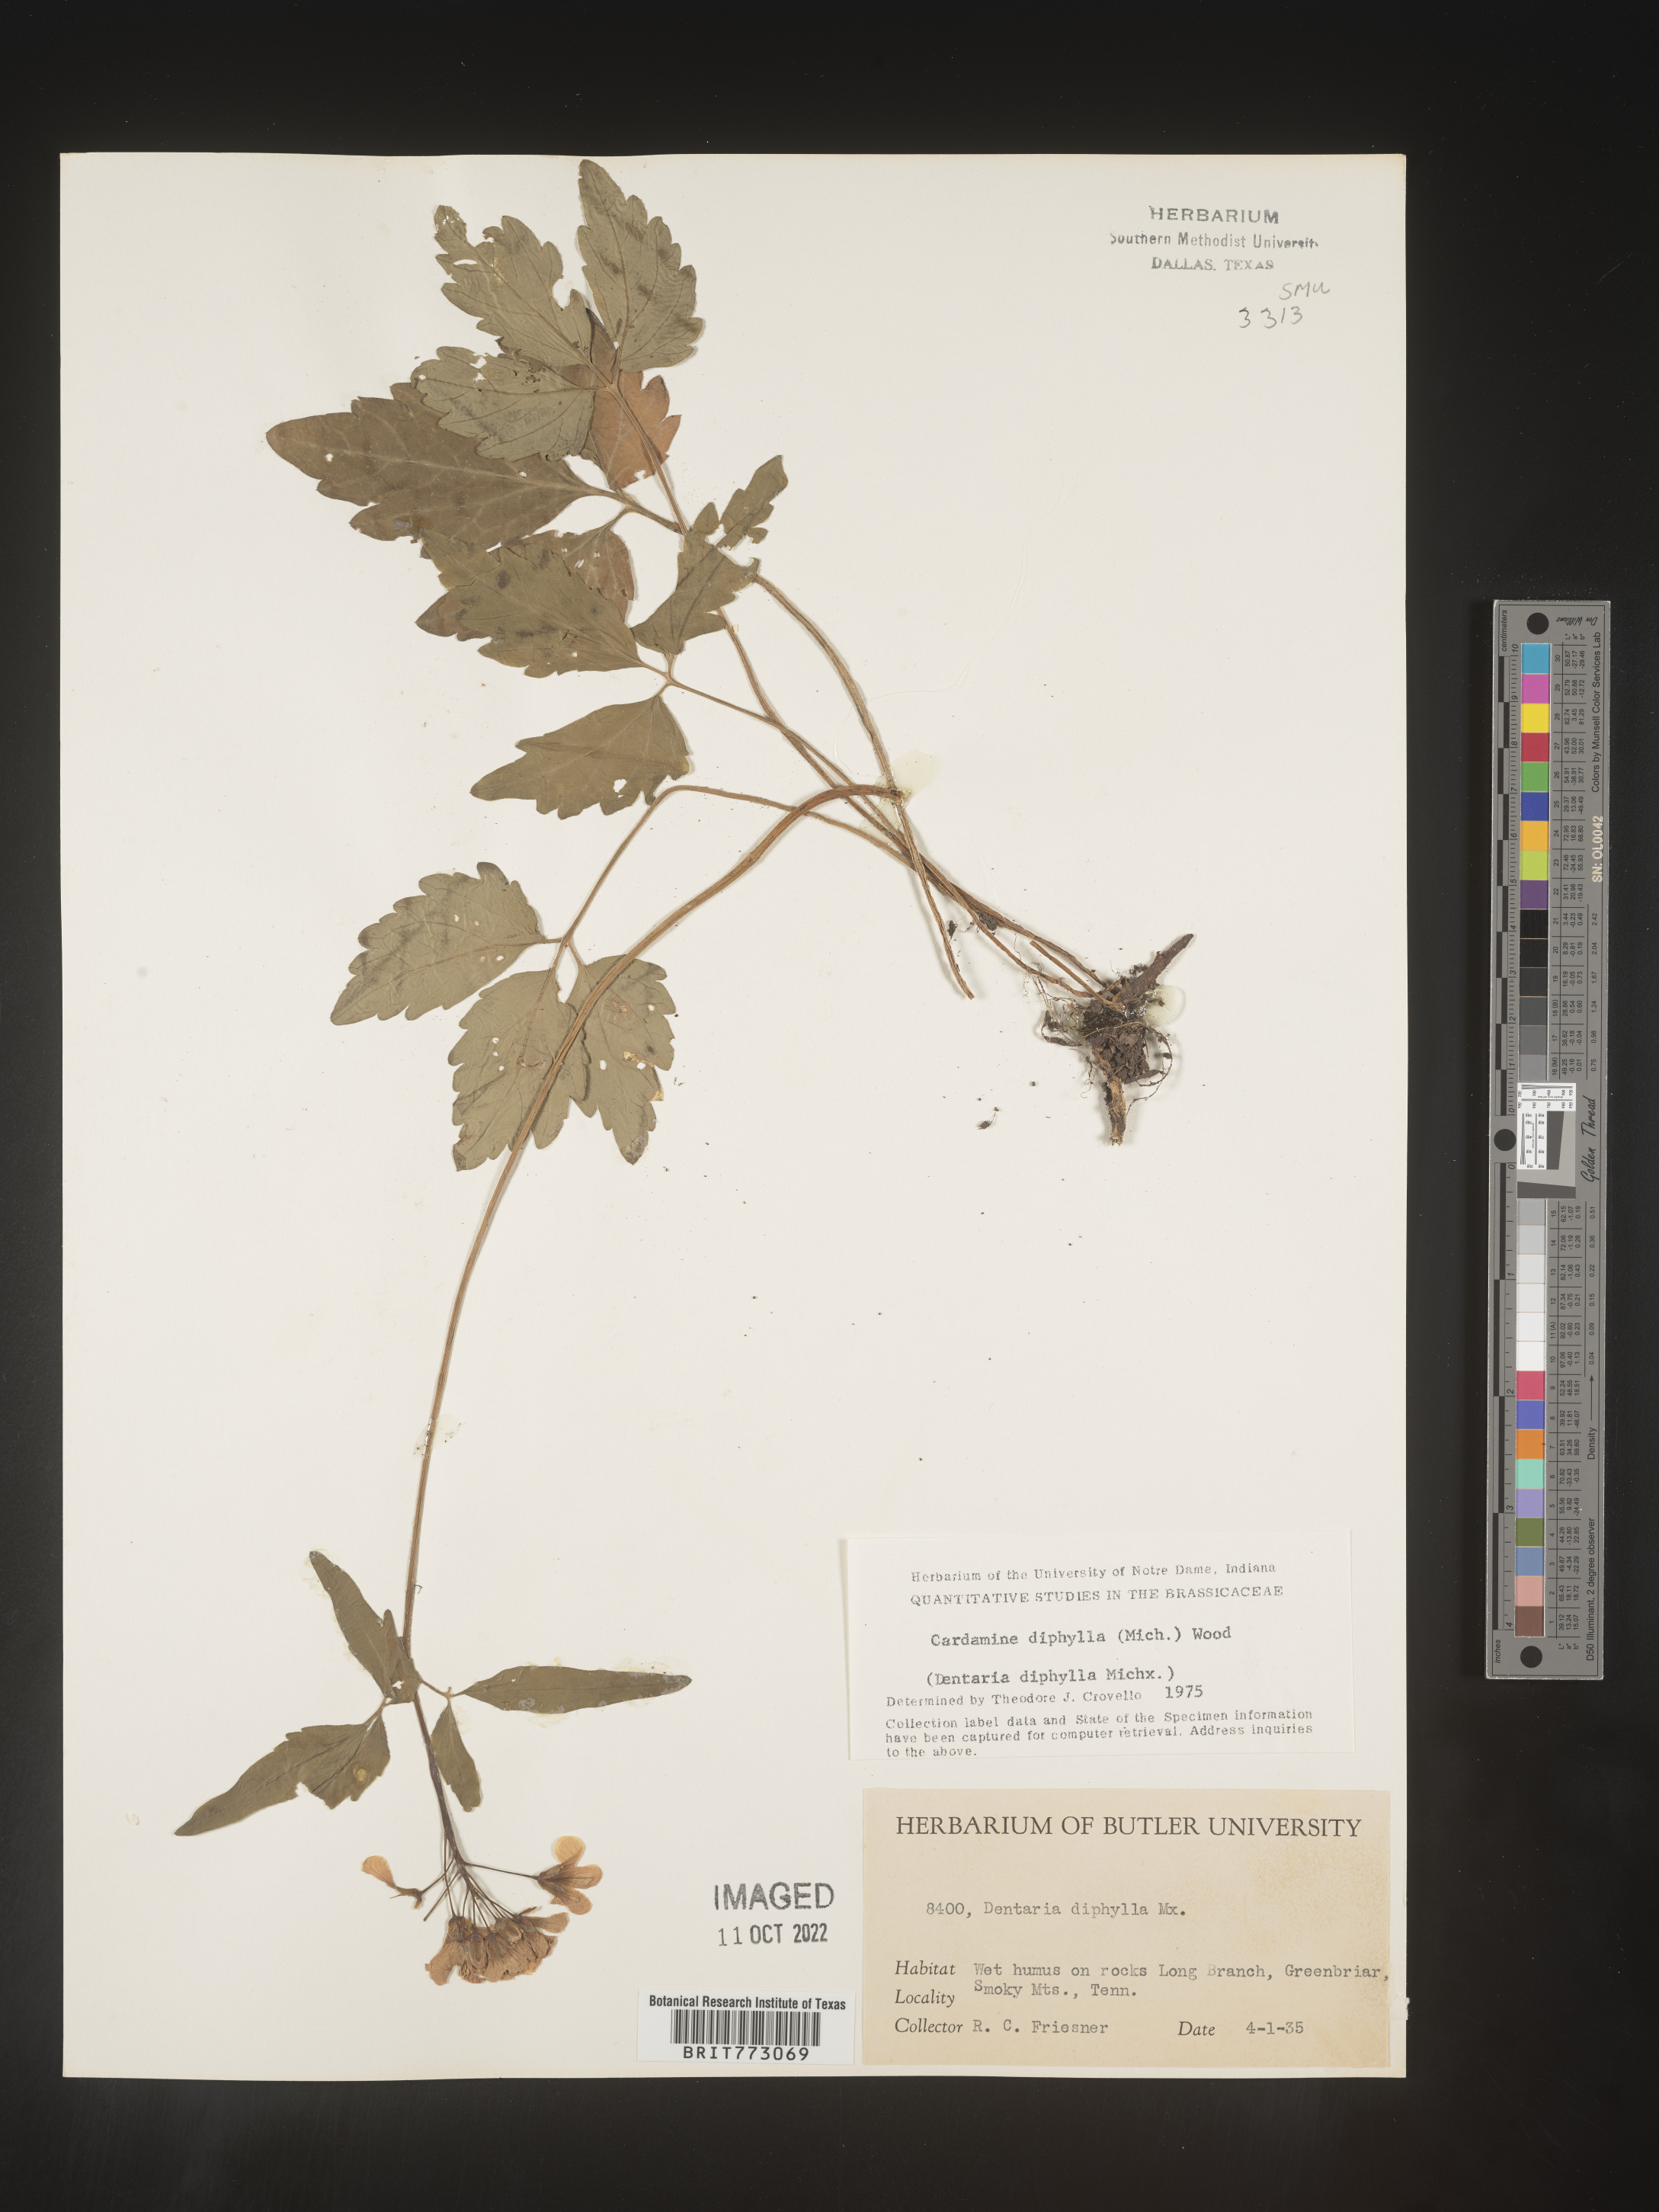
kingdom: Plantae
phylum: Tracheophyta
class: Magnoliopsida
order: Brassicales
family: Brassicaceae
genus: Cardamine
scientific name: Cardamine diphylla
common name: Broad-leaved toothwort
